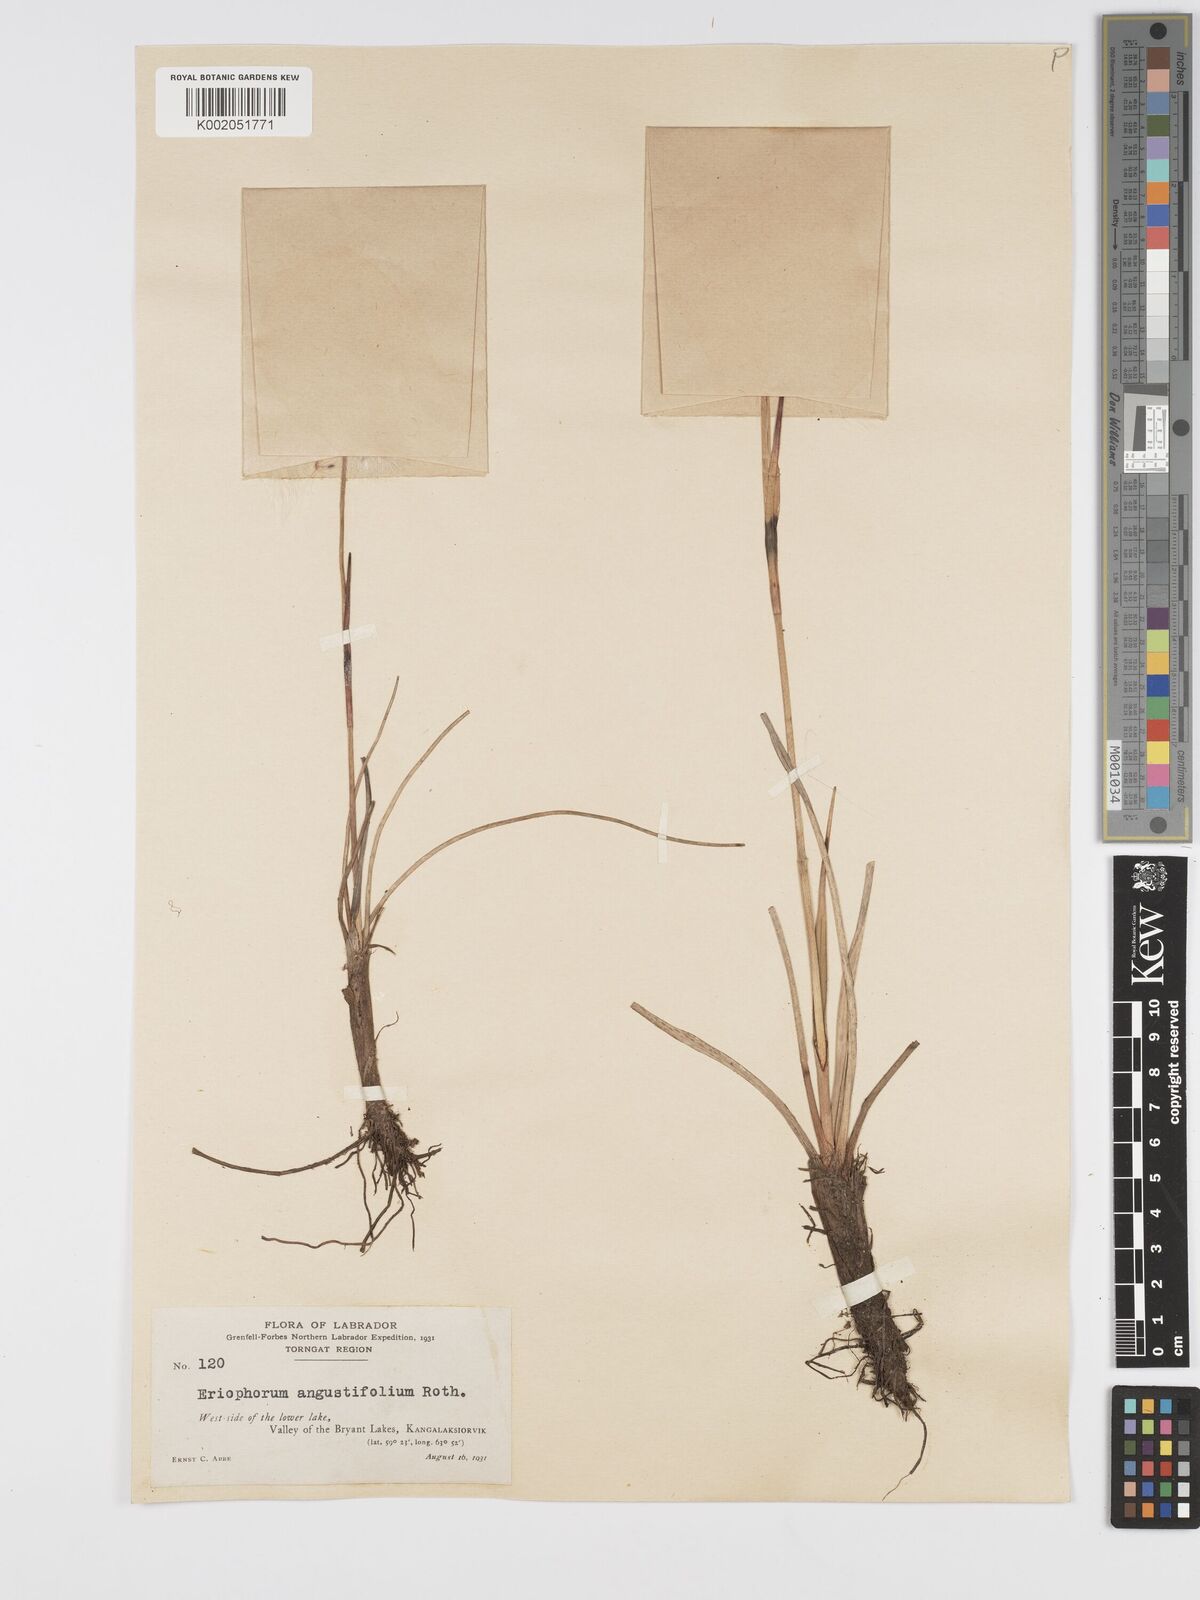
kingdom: Plantae
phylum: Tracheophyta
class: Liliopsida
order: Poales
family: Cyperaceae
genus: Eriophorum
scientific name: Eriophorum angustifolium
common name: Common cottongrass
